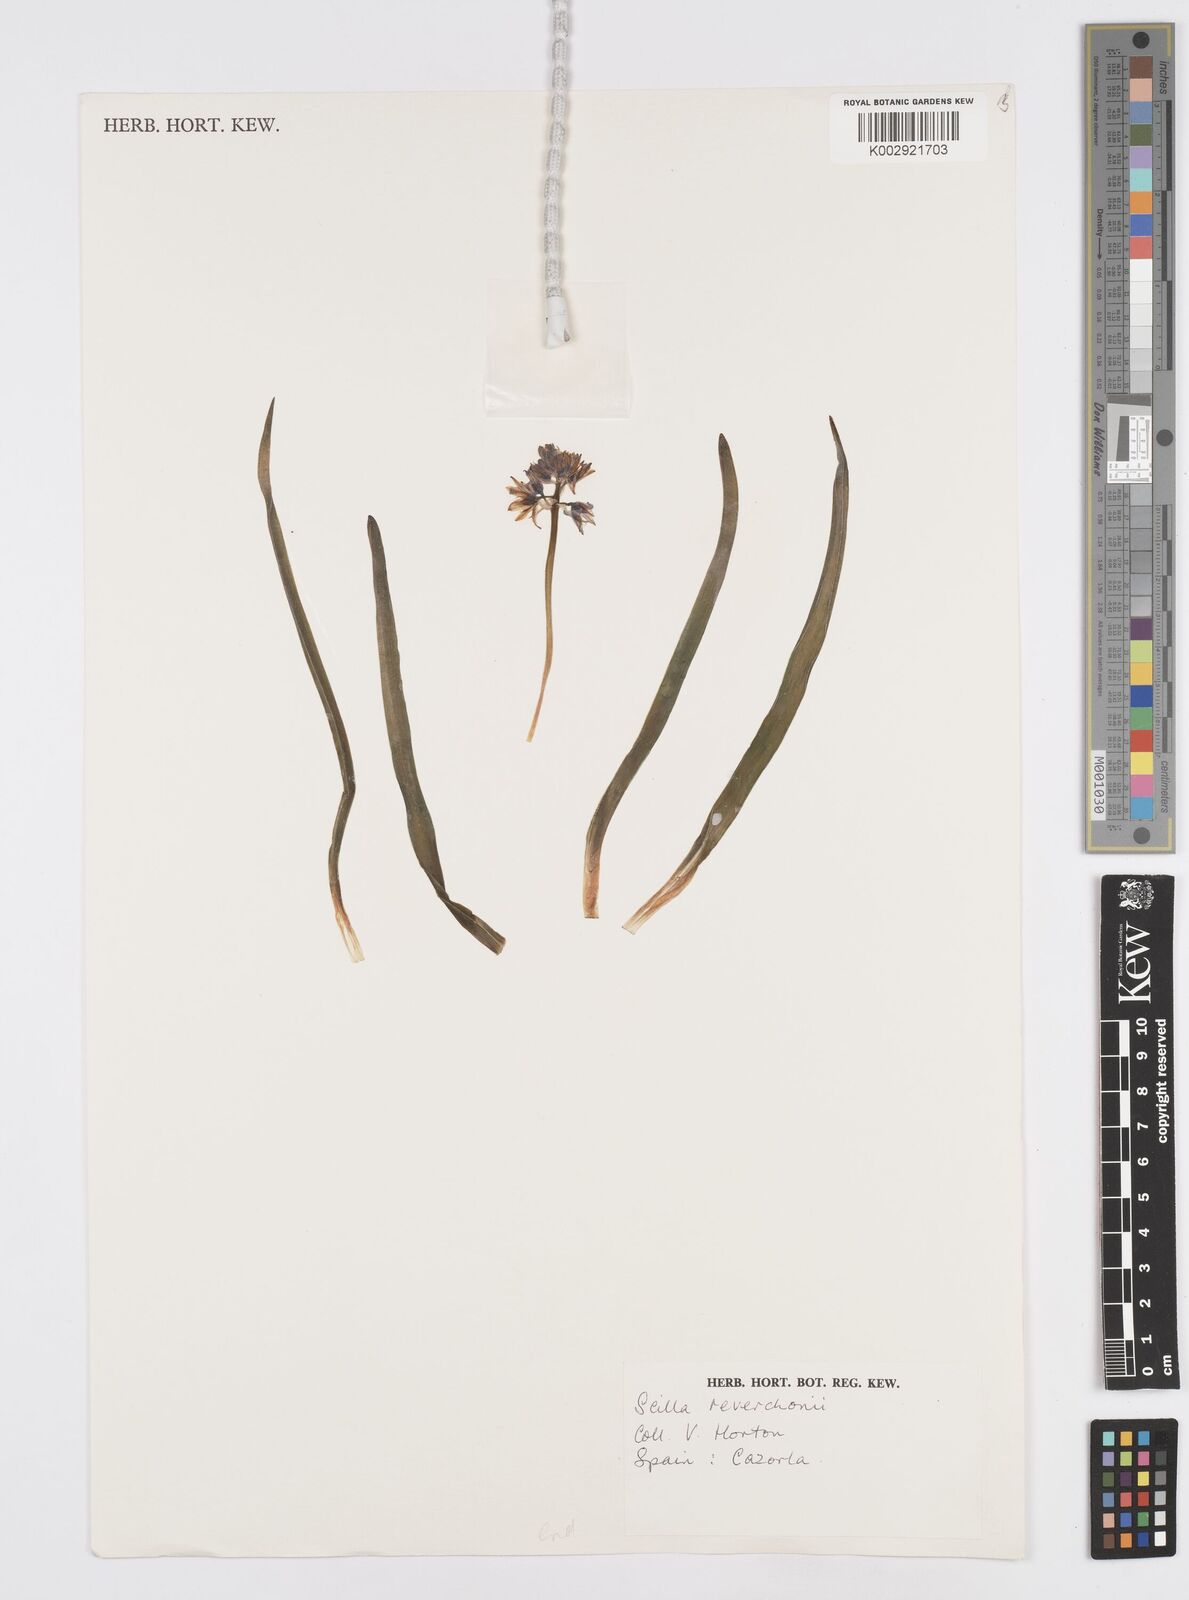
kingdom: Plantae
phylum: Tracheophyta
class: Liliopsida
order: Asparagales
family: Asparagaceae
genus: Hyacinthoides
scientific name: Hyacinthoides reverchonii
